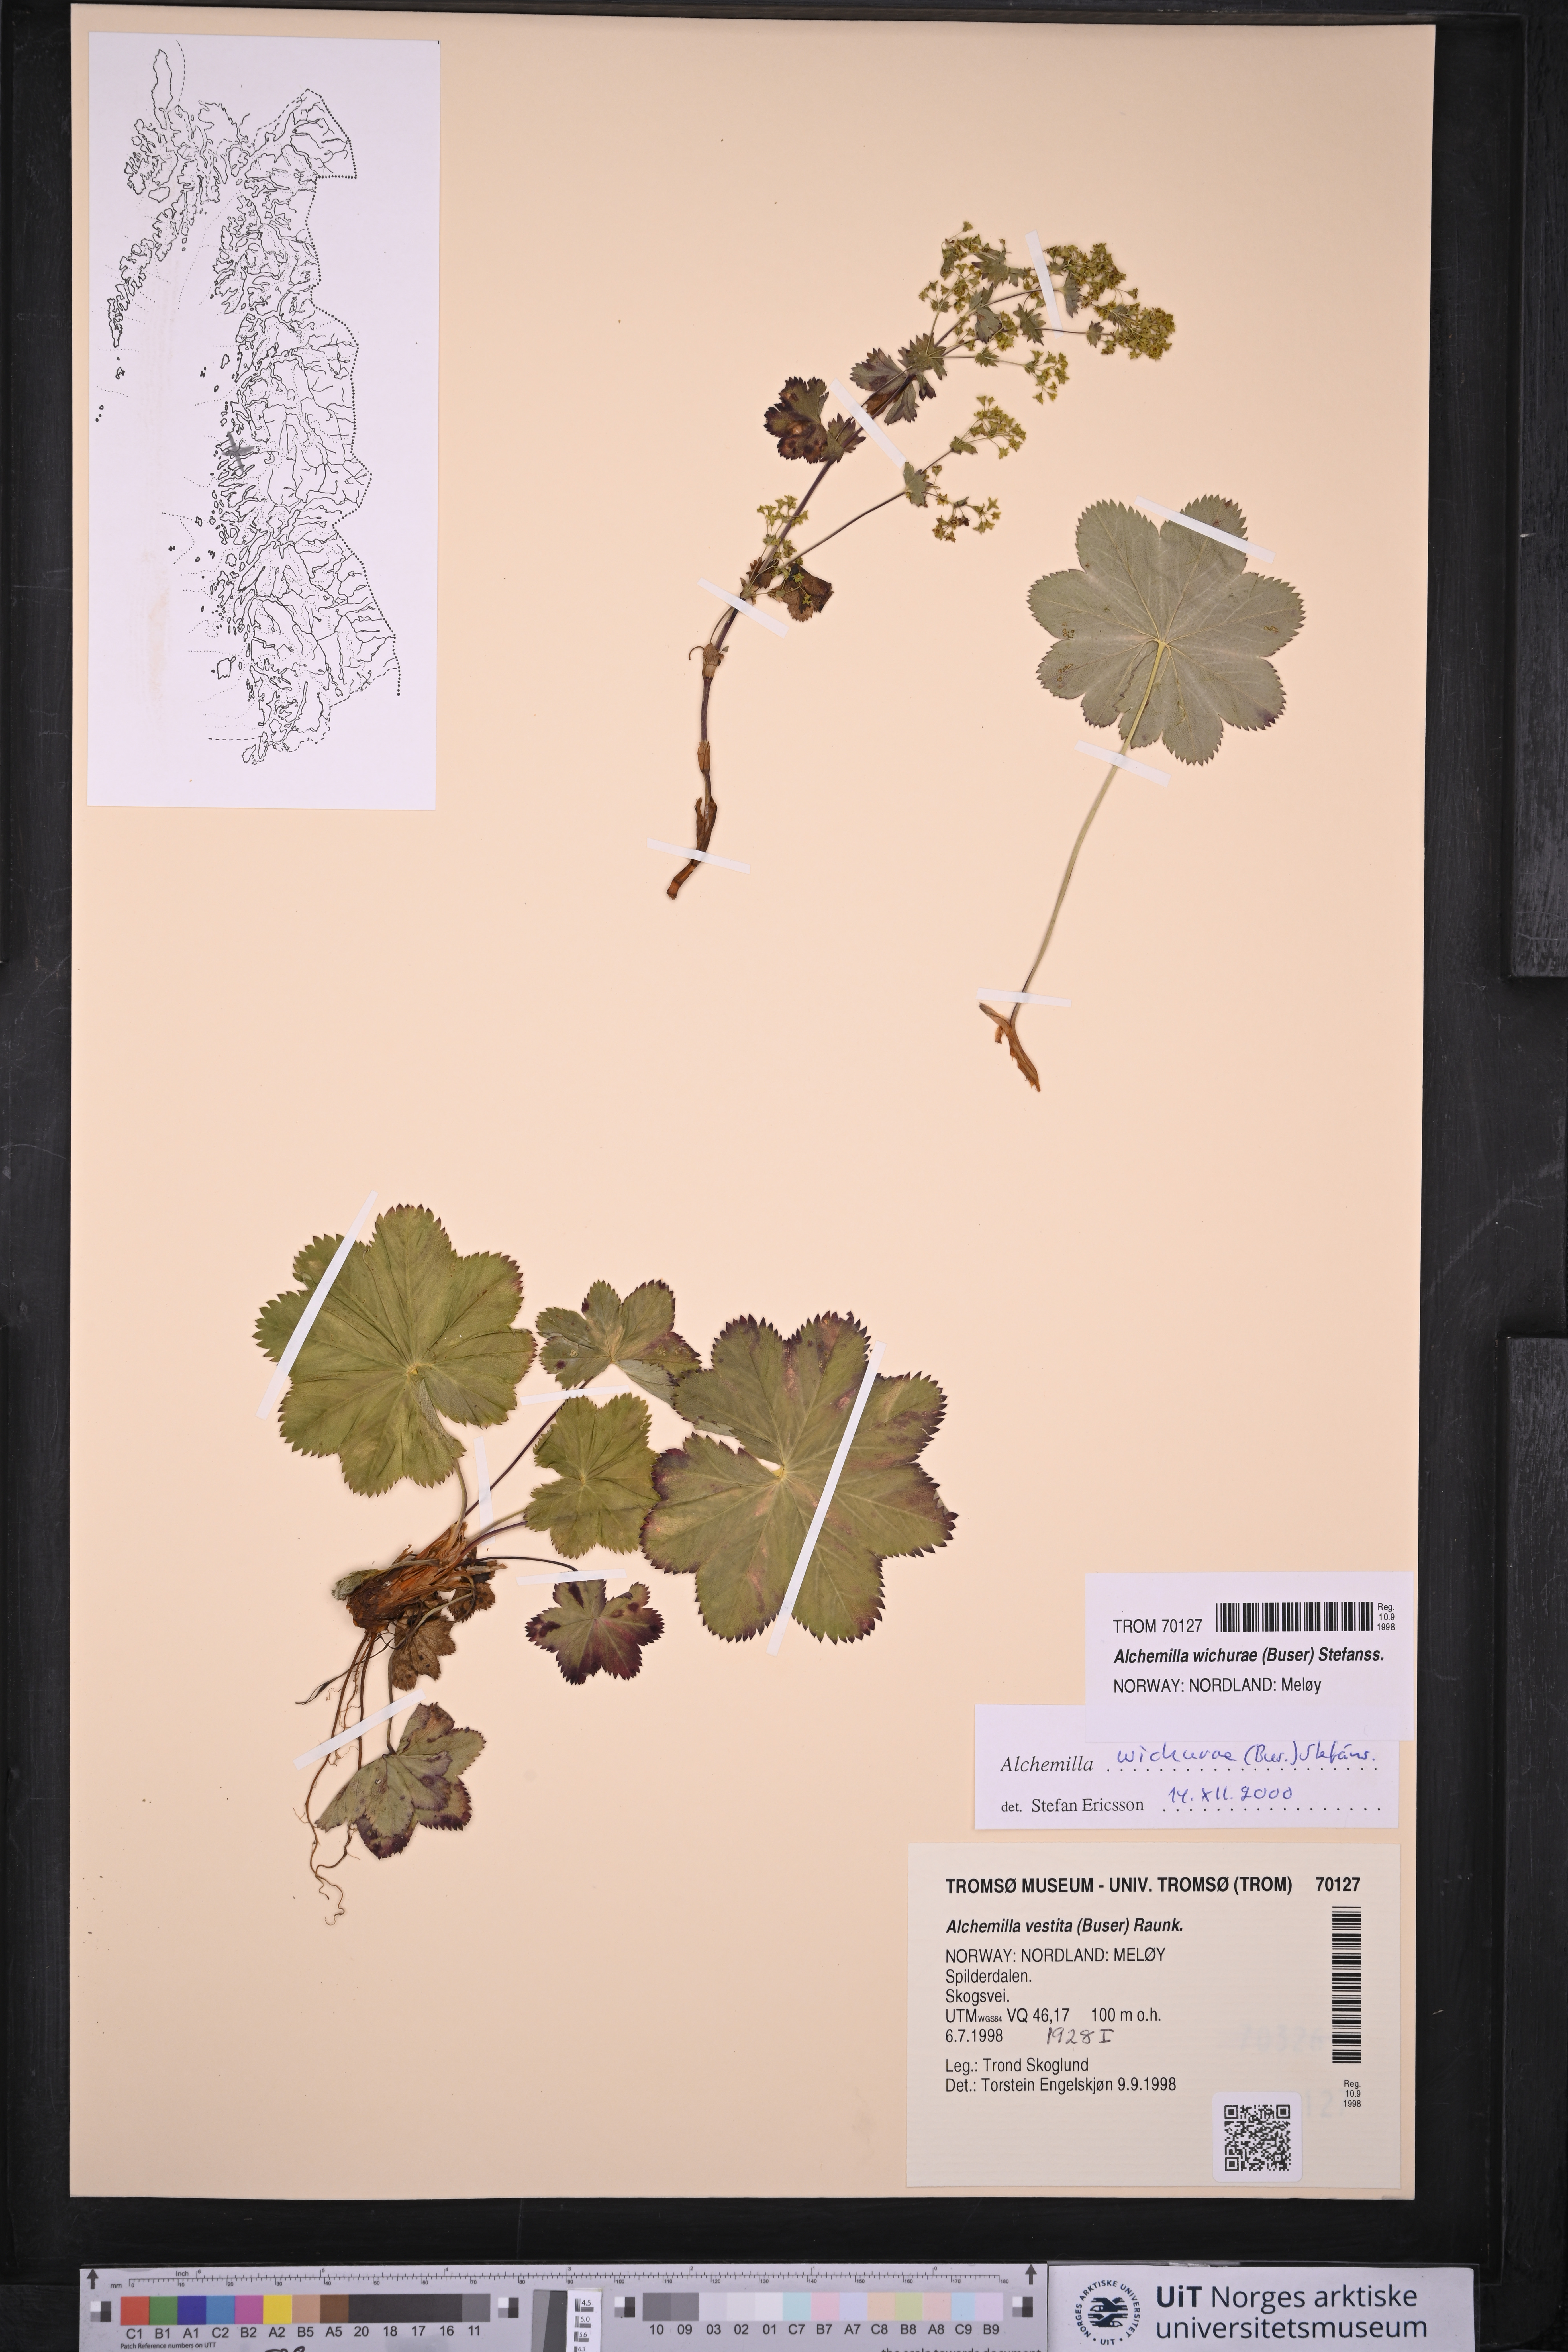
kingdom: Plantae
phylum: Tracheophyta
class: Magnoliopsida
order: Rosales
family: Rosaceae
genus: Alchemilla
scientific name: Alchemilla wichurae
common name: Rock lady's mantle
